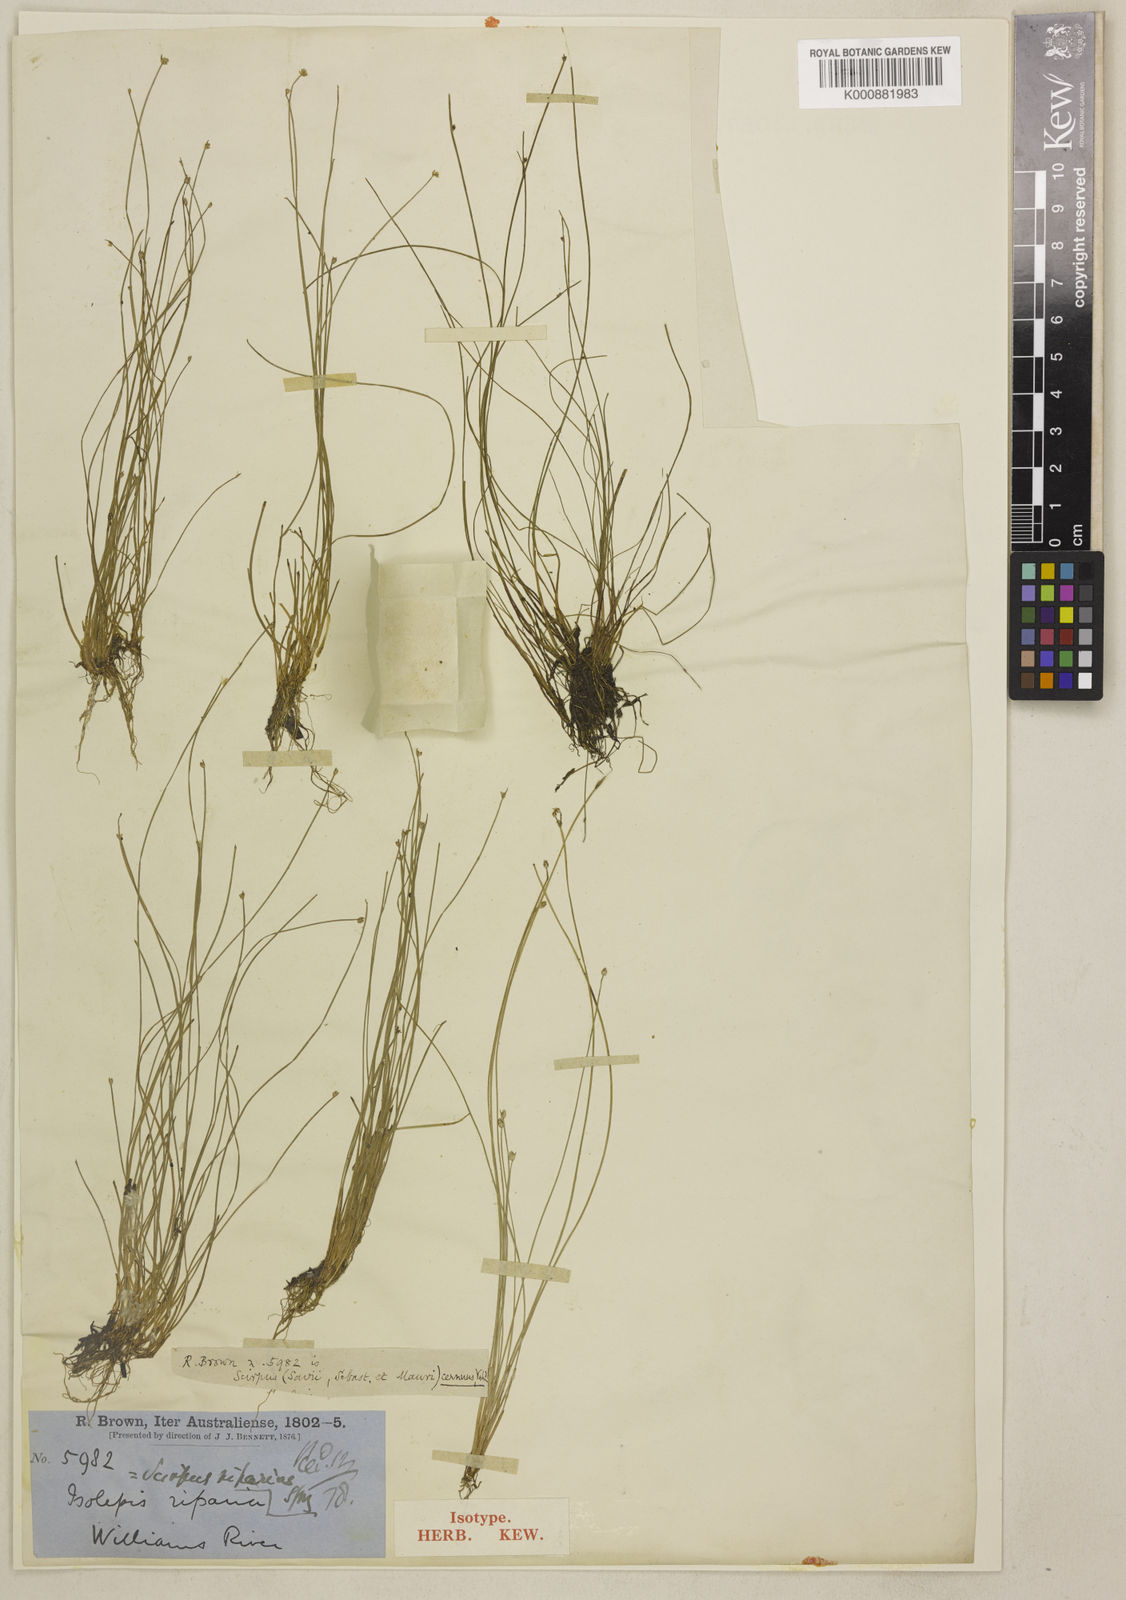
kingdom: Plantae
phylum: Tracheophyta
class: Liliopsida
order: Poales
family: Cyperaceae
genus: Isolepis
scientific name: Isolepis cernua
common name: Slender club-rush
